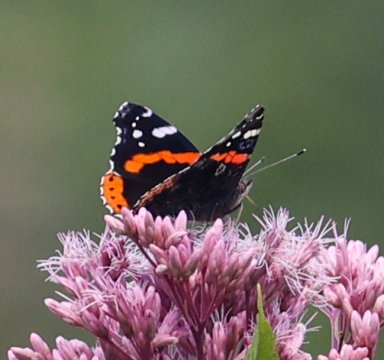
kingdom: Animalia
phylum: Arthropoda
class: Insecta
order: Lepidoptera
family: Nymphalidae
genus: Vanessa
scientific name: Vanessa atalanta
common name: Red Admiral
